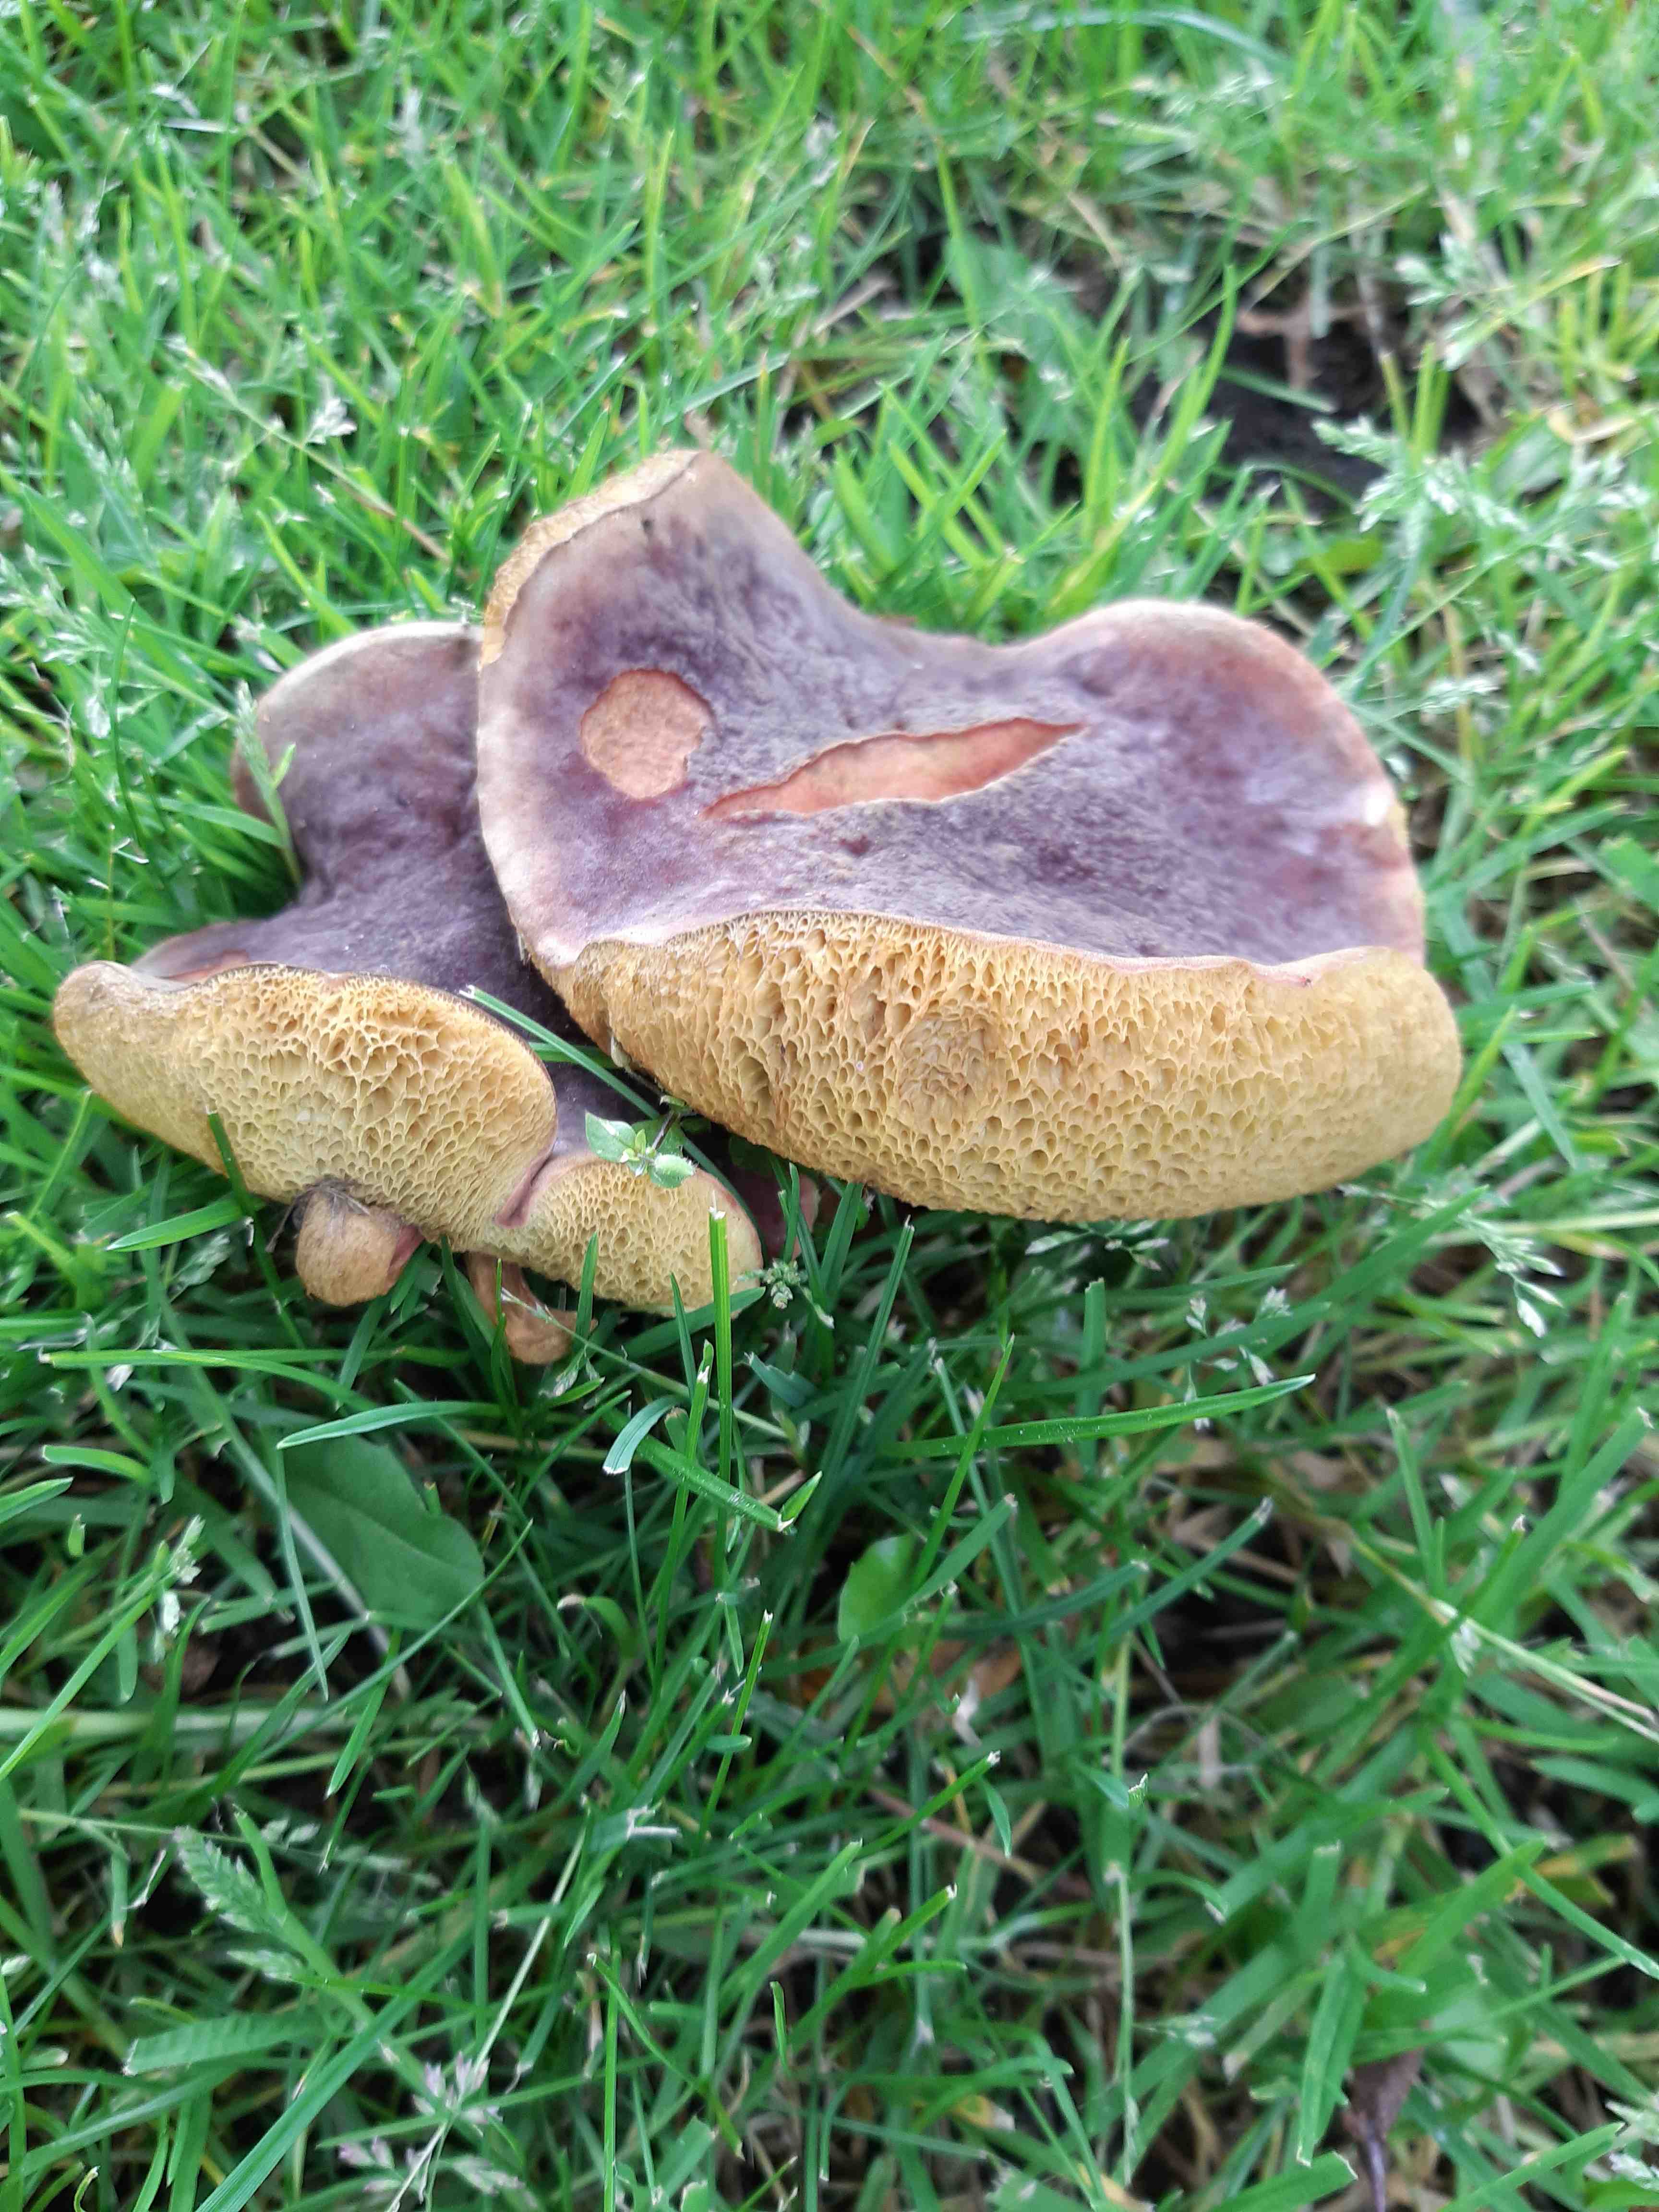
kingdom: Fungi
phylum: Basidiomycota
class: Agaricomycetes
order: Boletales
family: Boletaceae
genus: Hortiboletus
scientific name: Hortiboletus bubalinus
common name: aurora-rørhat
